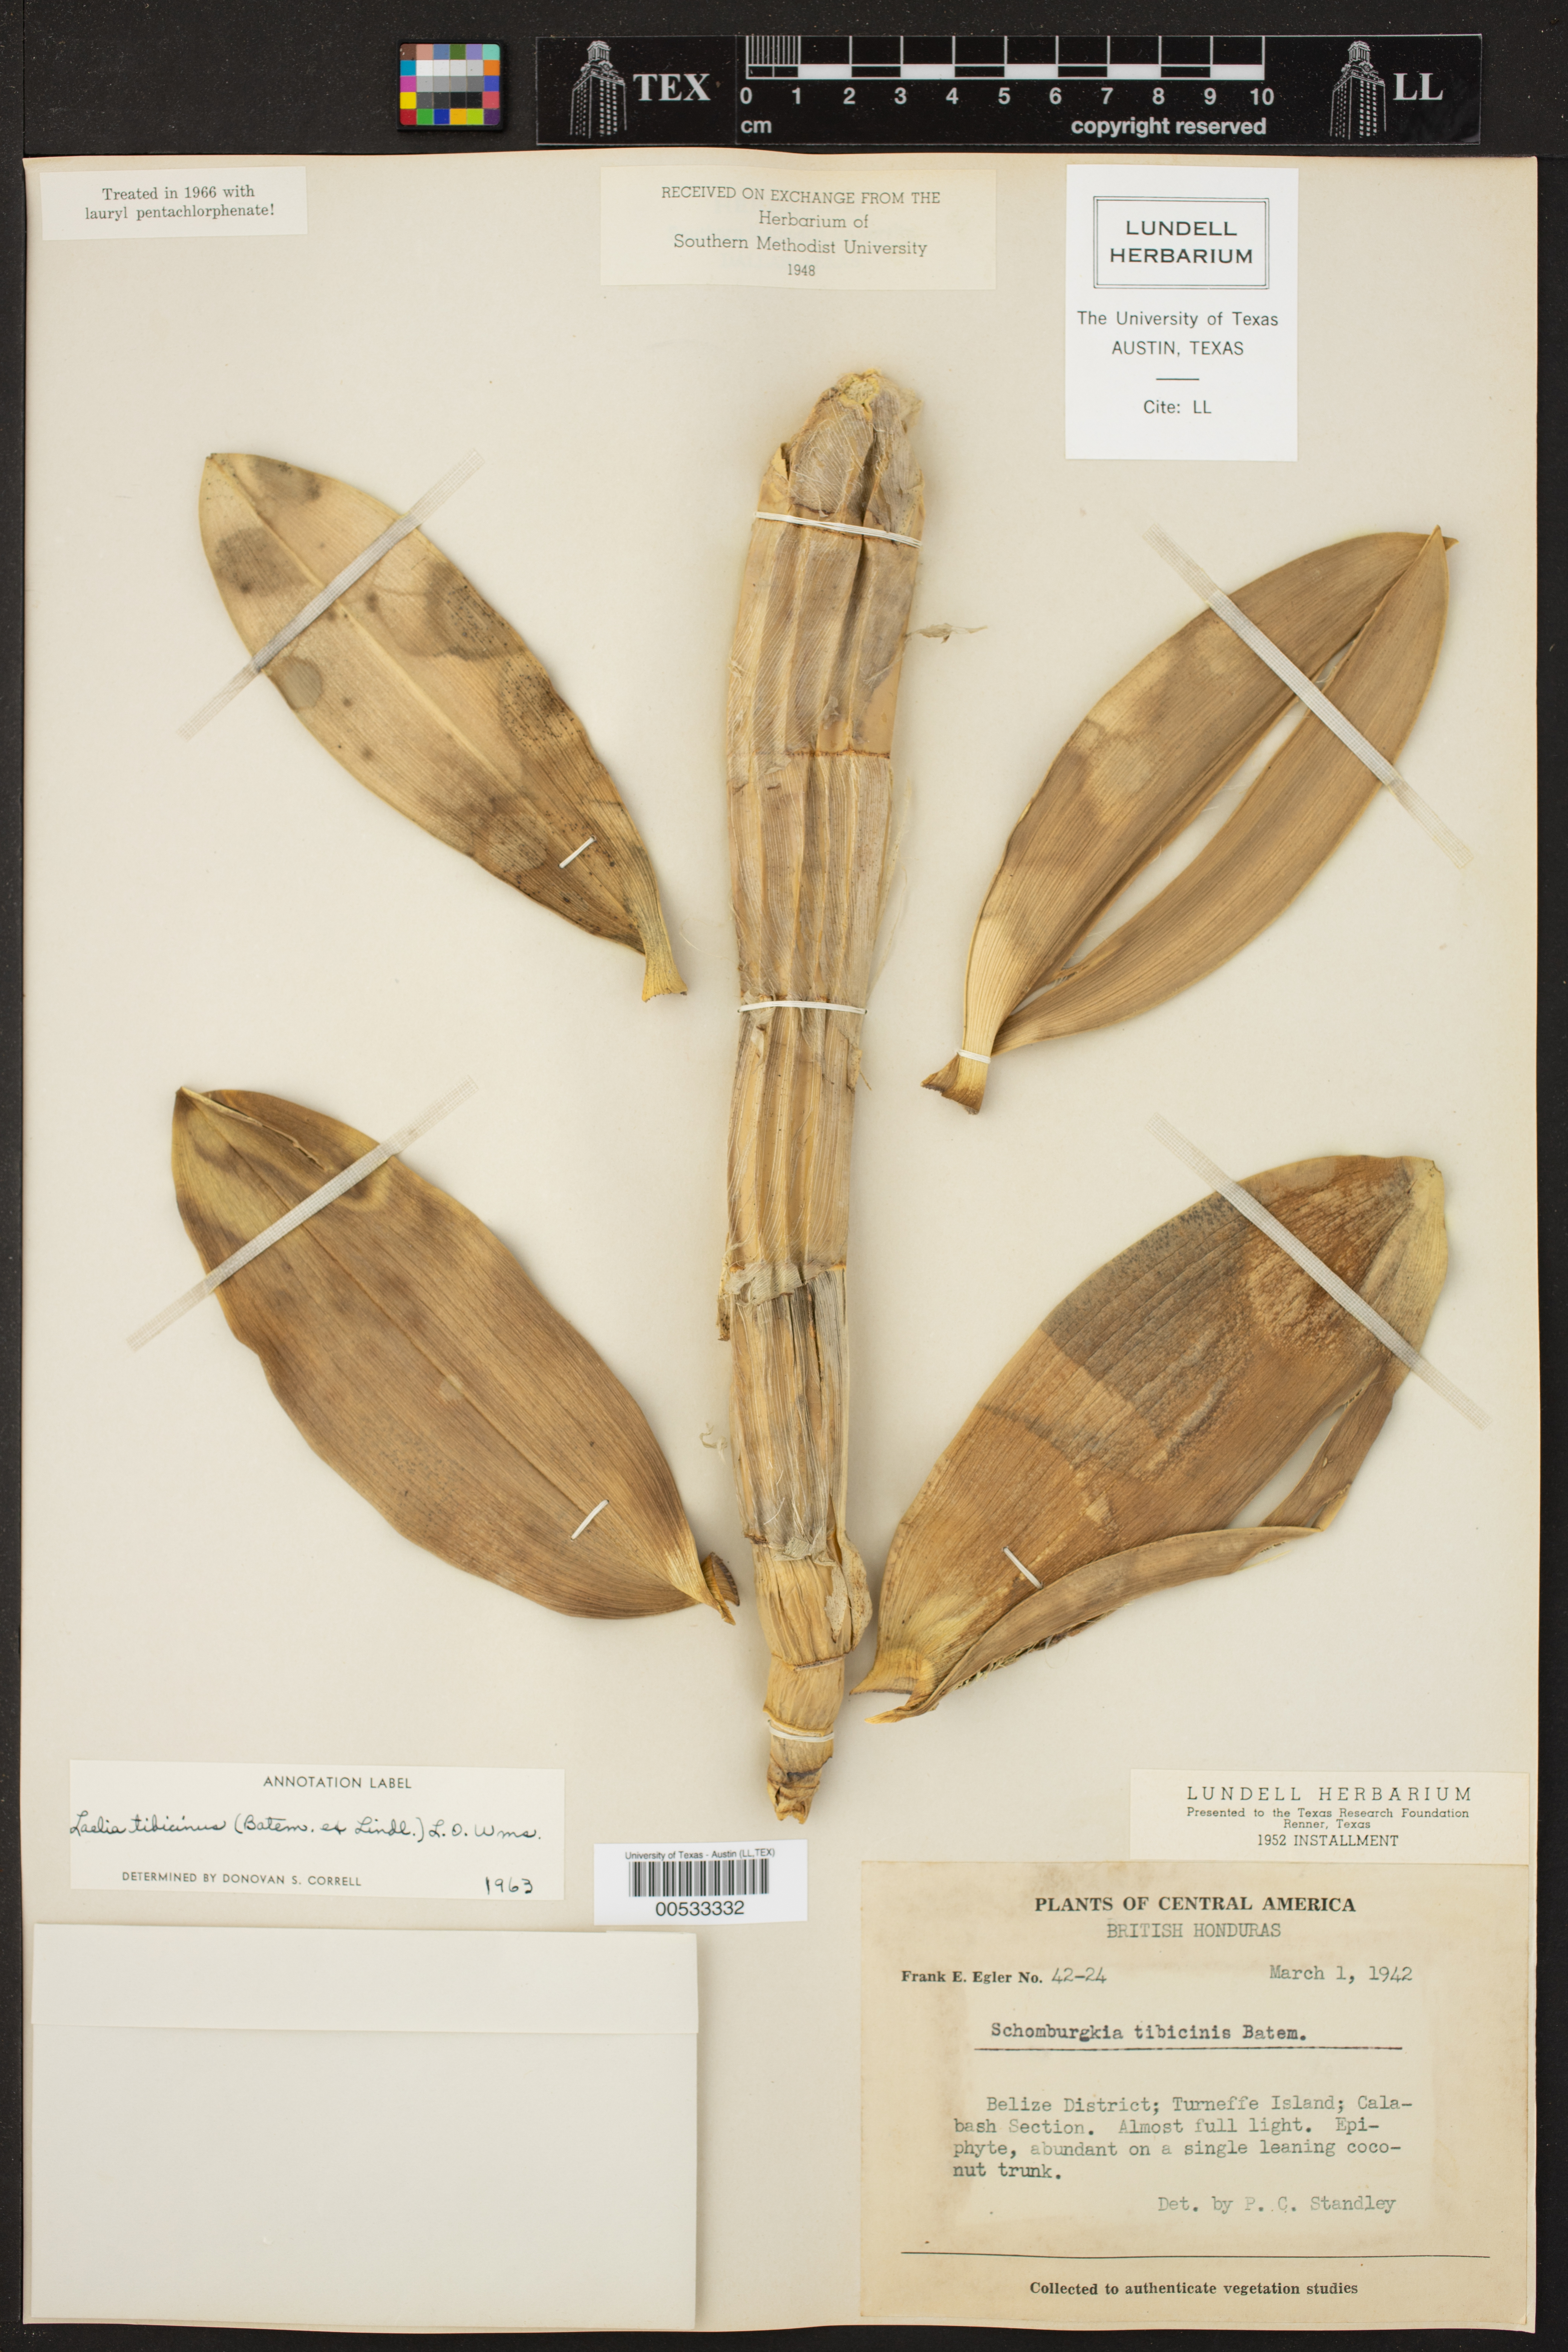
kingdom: Plantae
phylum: Tracheophyta
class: Liliopsida
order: Asparagales
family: Orchidaceae
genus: Myrmecophila
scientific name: Myrmecophila tibicinis
